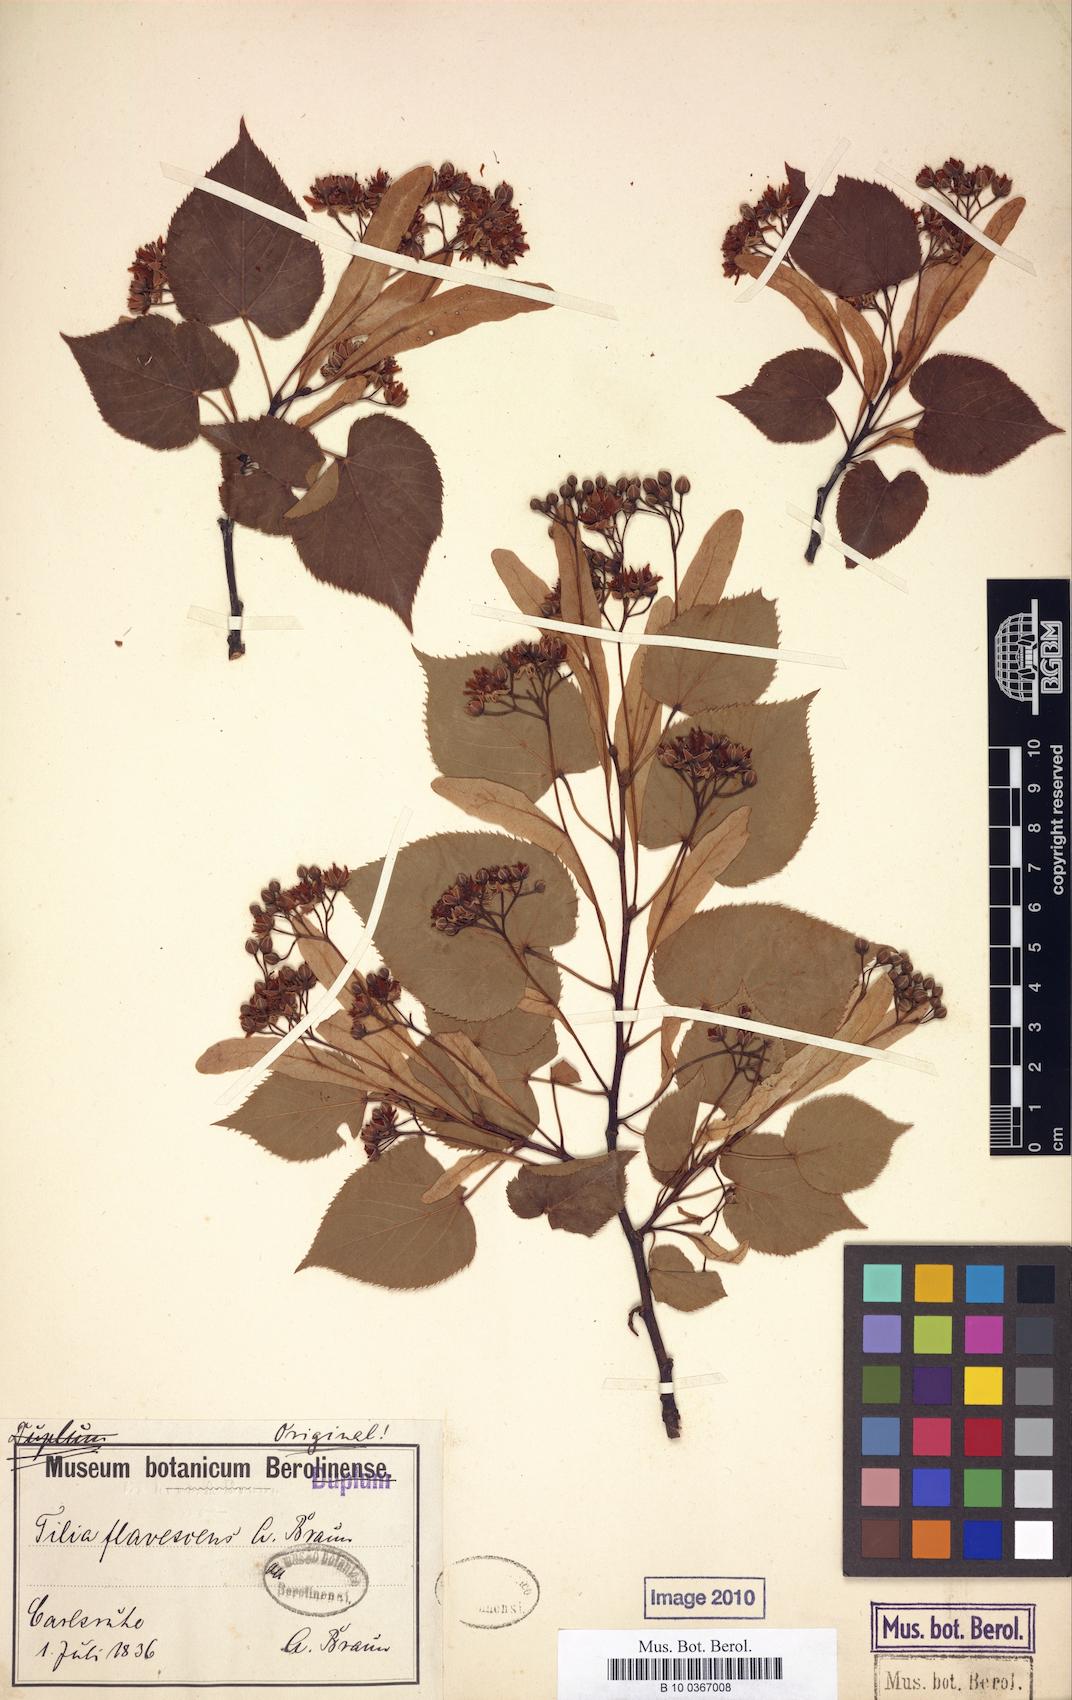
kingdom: Plantae
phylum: Tracheophyta
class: Magnoliopsida
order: Malvales
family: Malvaceae
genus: Tilia
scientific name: Tilia flavescens
